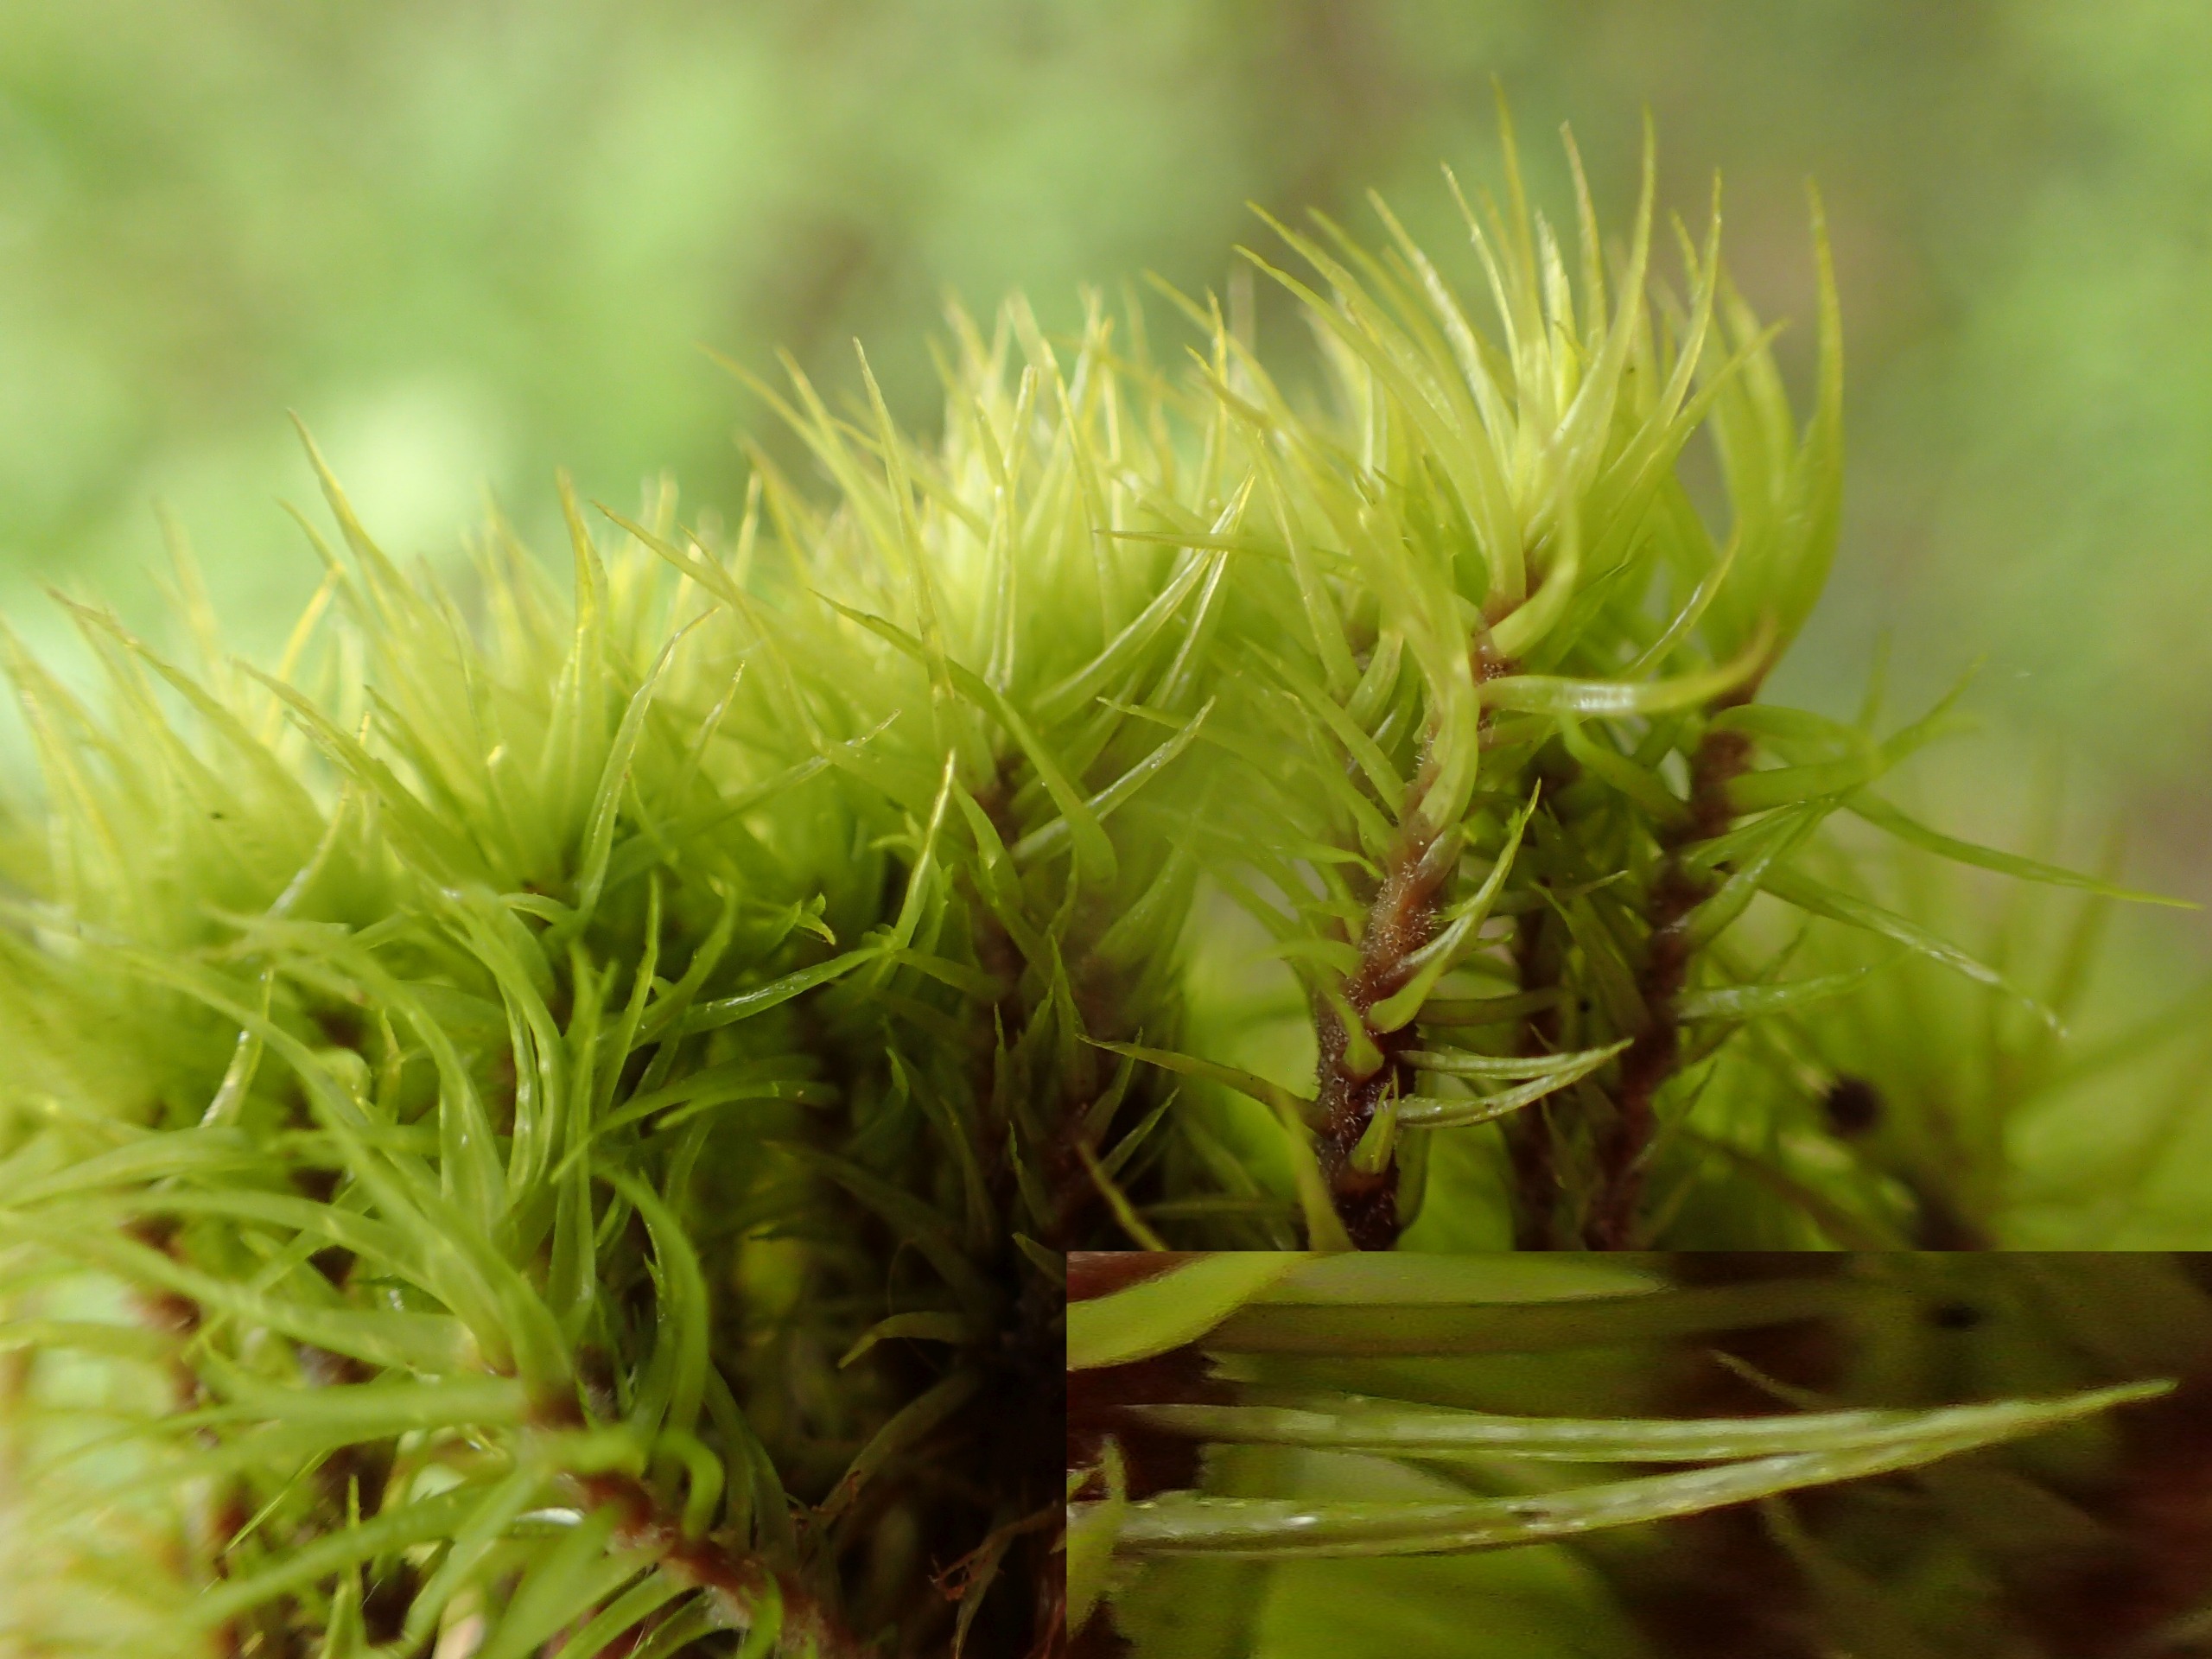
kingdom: Plantae
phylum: Bryophyta
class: Bryopsida
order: Dicranales
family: Dicranaceae
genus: Dicranum
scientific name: Dicranum scoparium
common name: Almindelig kløvtand
